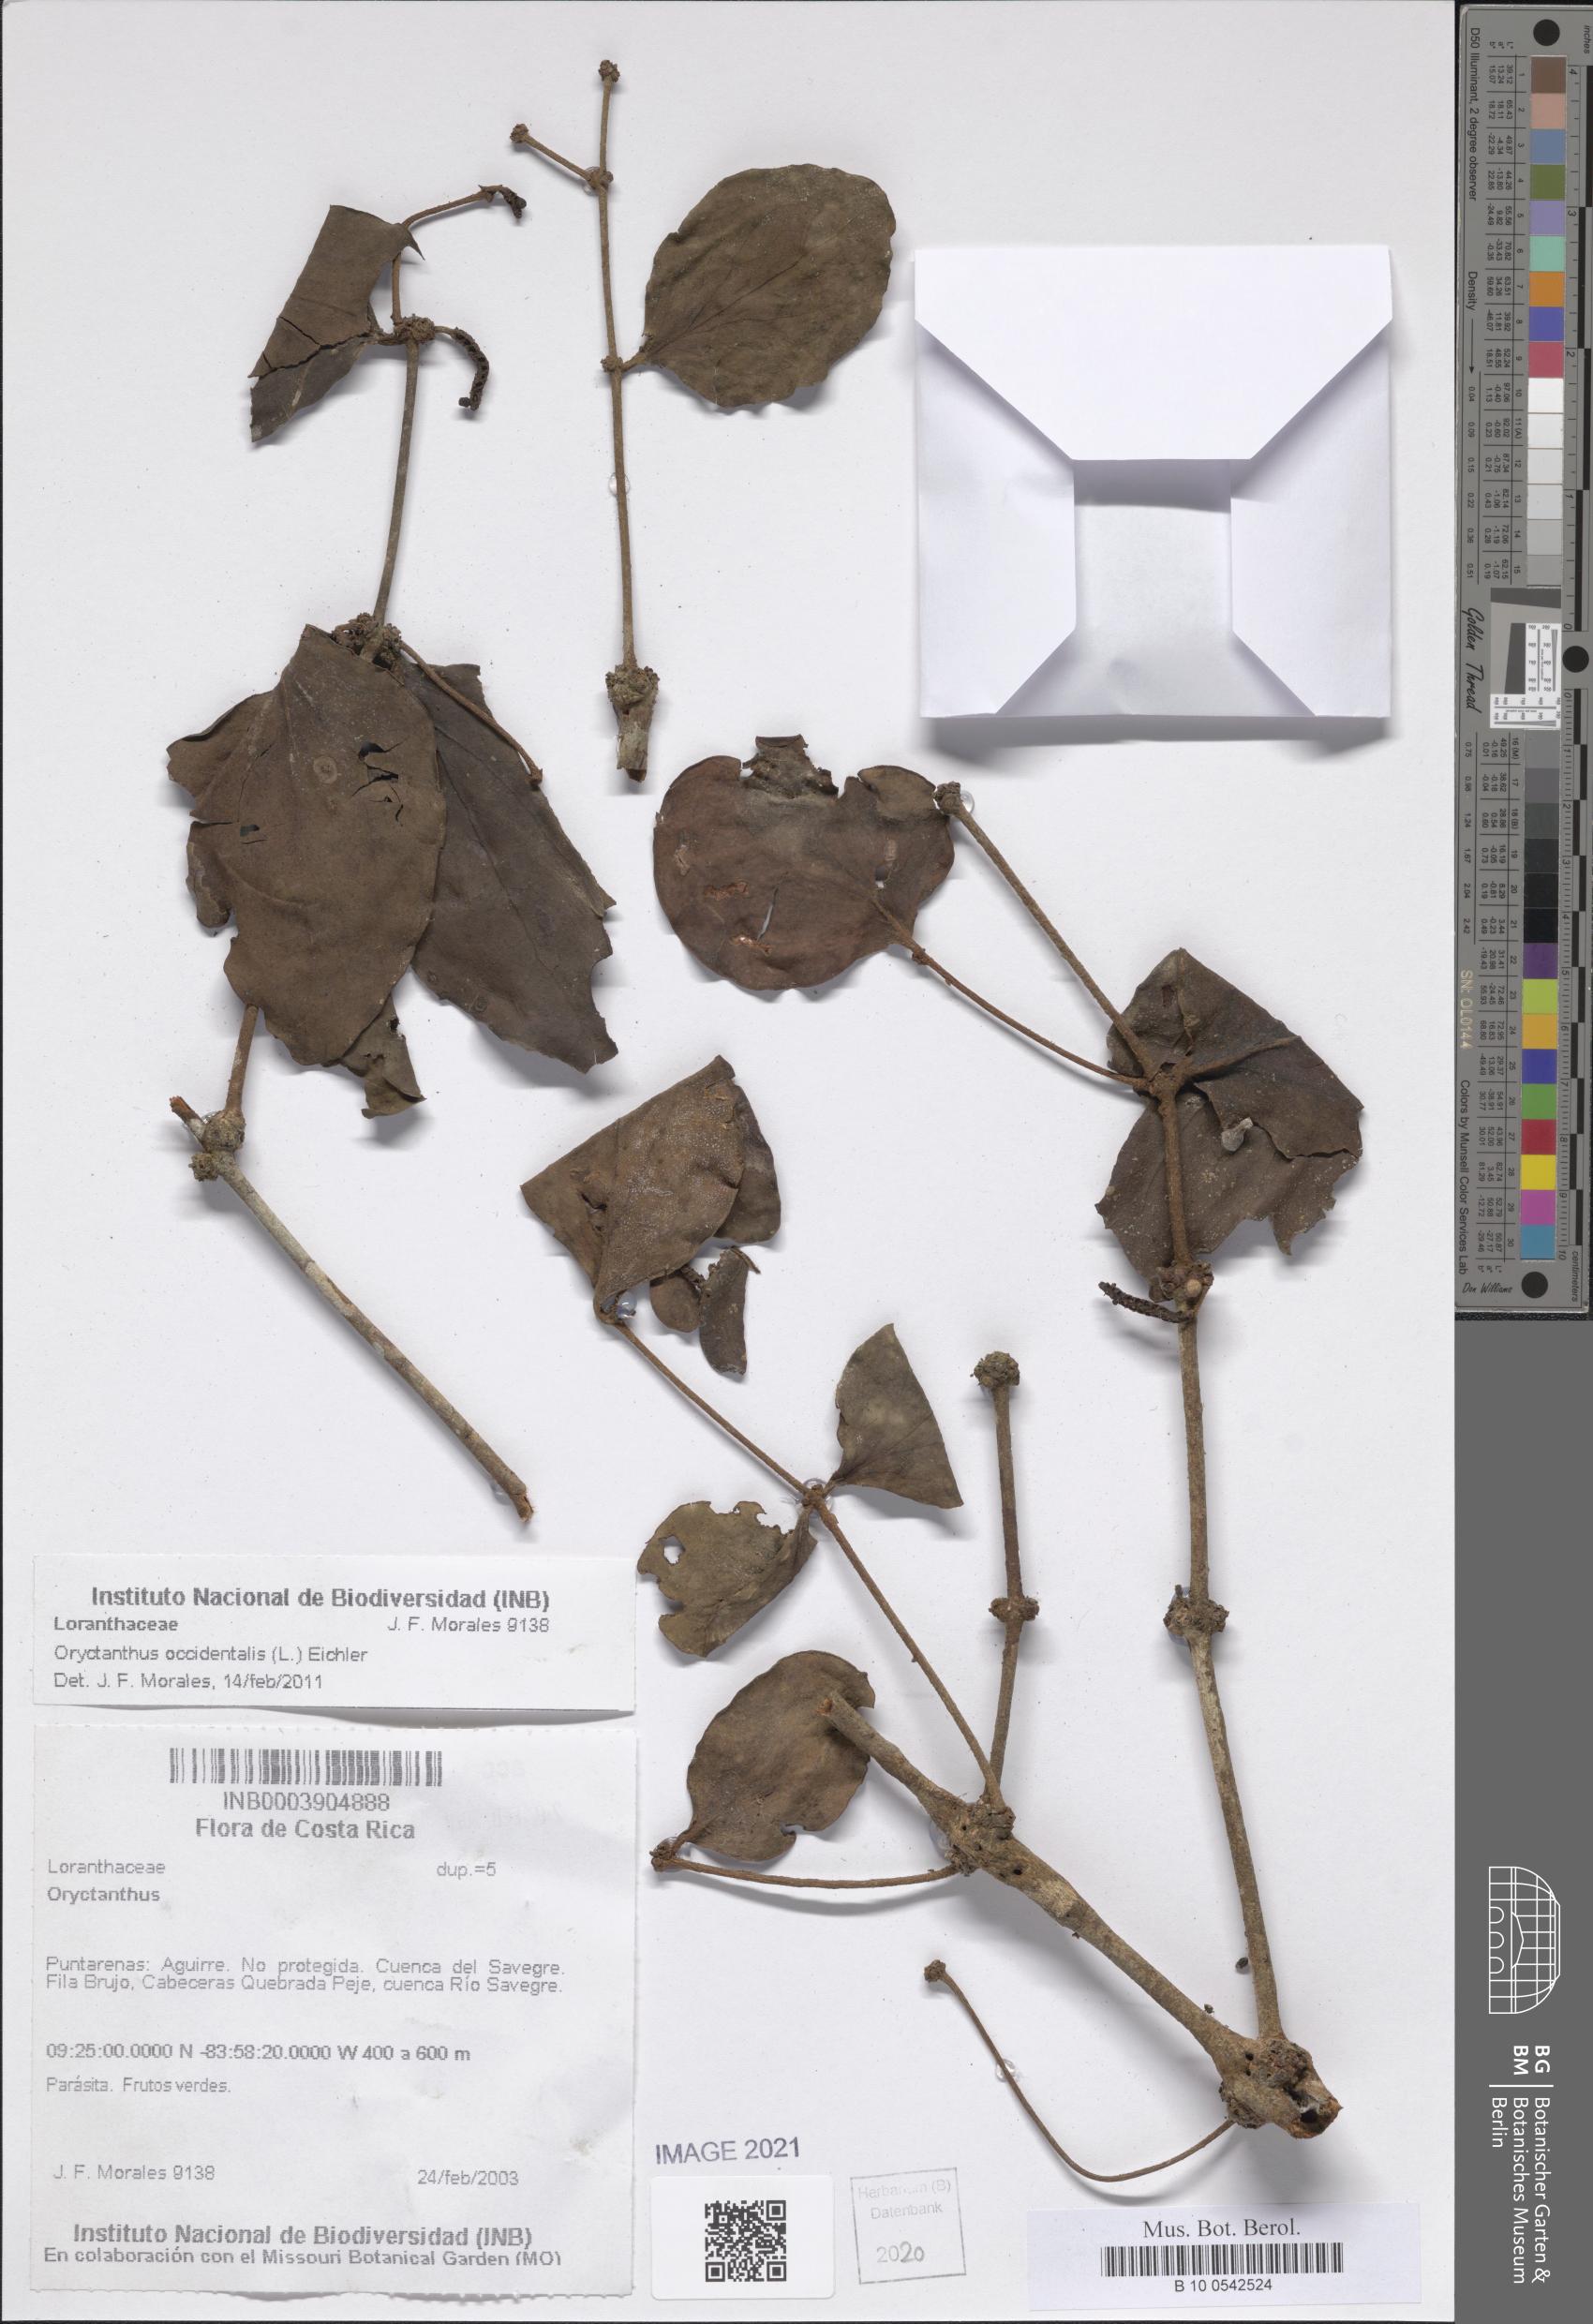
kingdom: Plantae
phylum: Tracheophyta
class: Magnoliopsida
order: Santalales
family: Loranthaceae
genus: Oryctanthus
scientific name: Oryctanthus occidentalis
